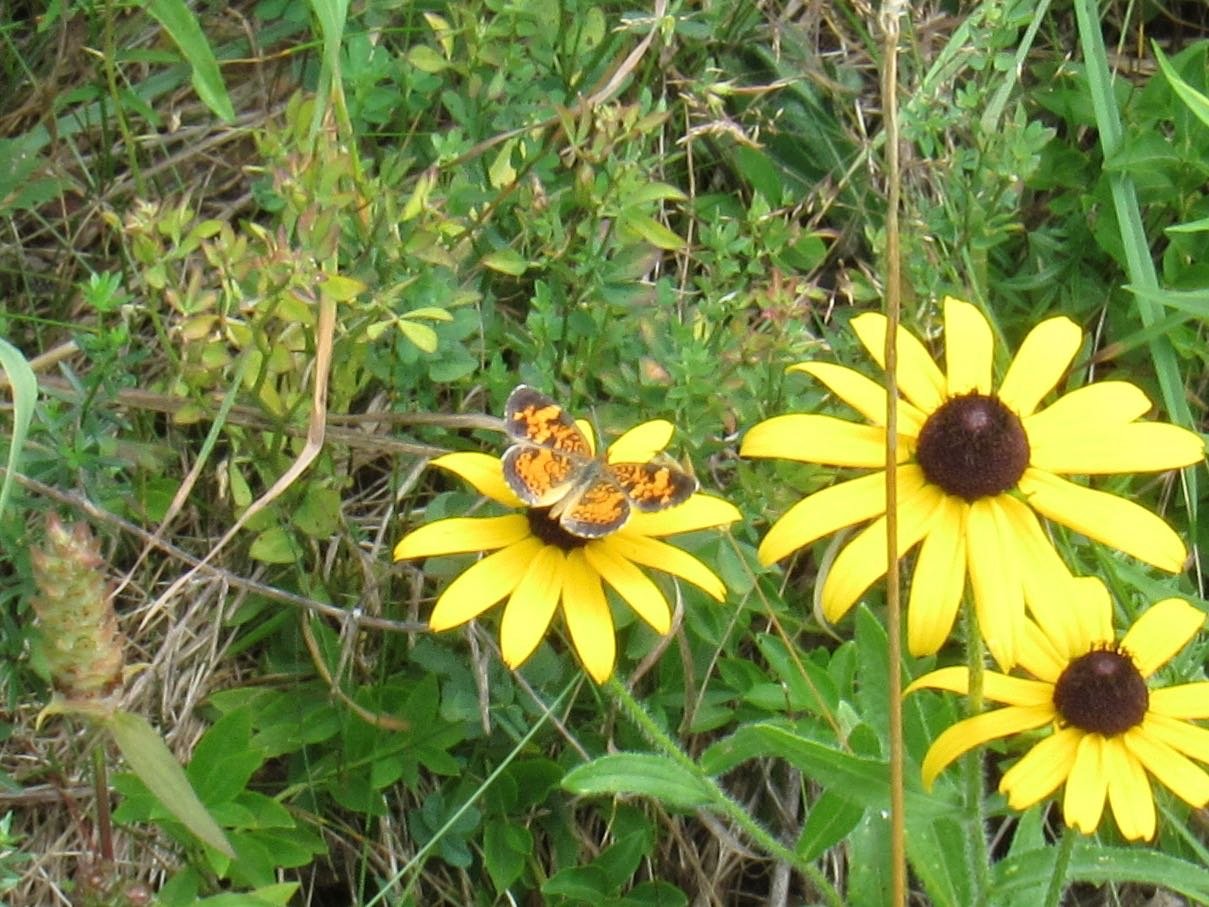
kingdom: Animalia
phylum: Arthropoda
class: Insecta
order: Lepidoptera
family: Nymphalidae
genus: Phyciodes
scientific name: Phyciodes tharos
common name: Pearl Crescent
